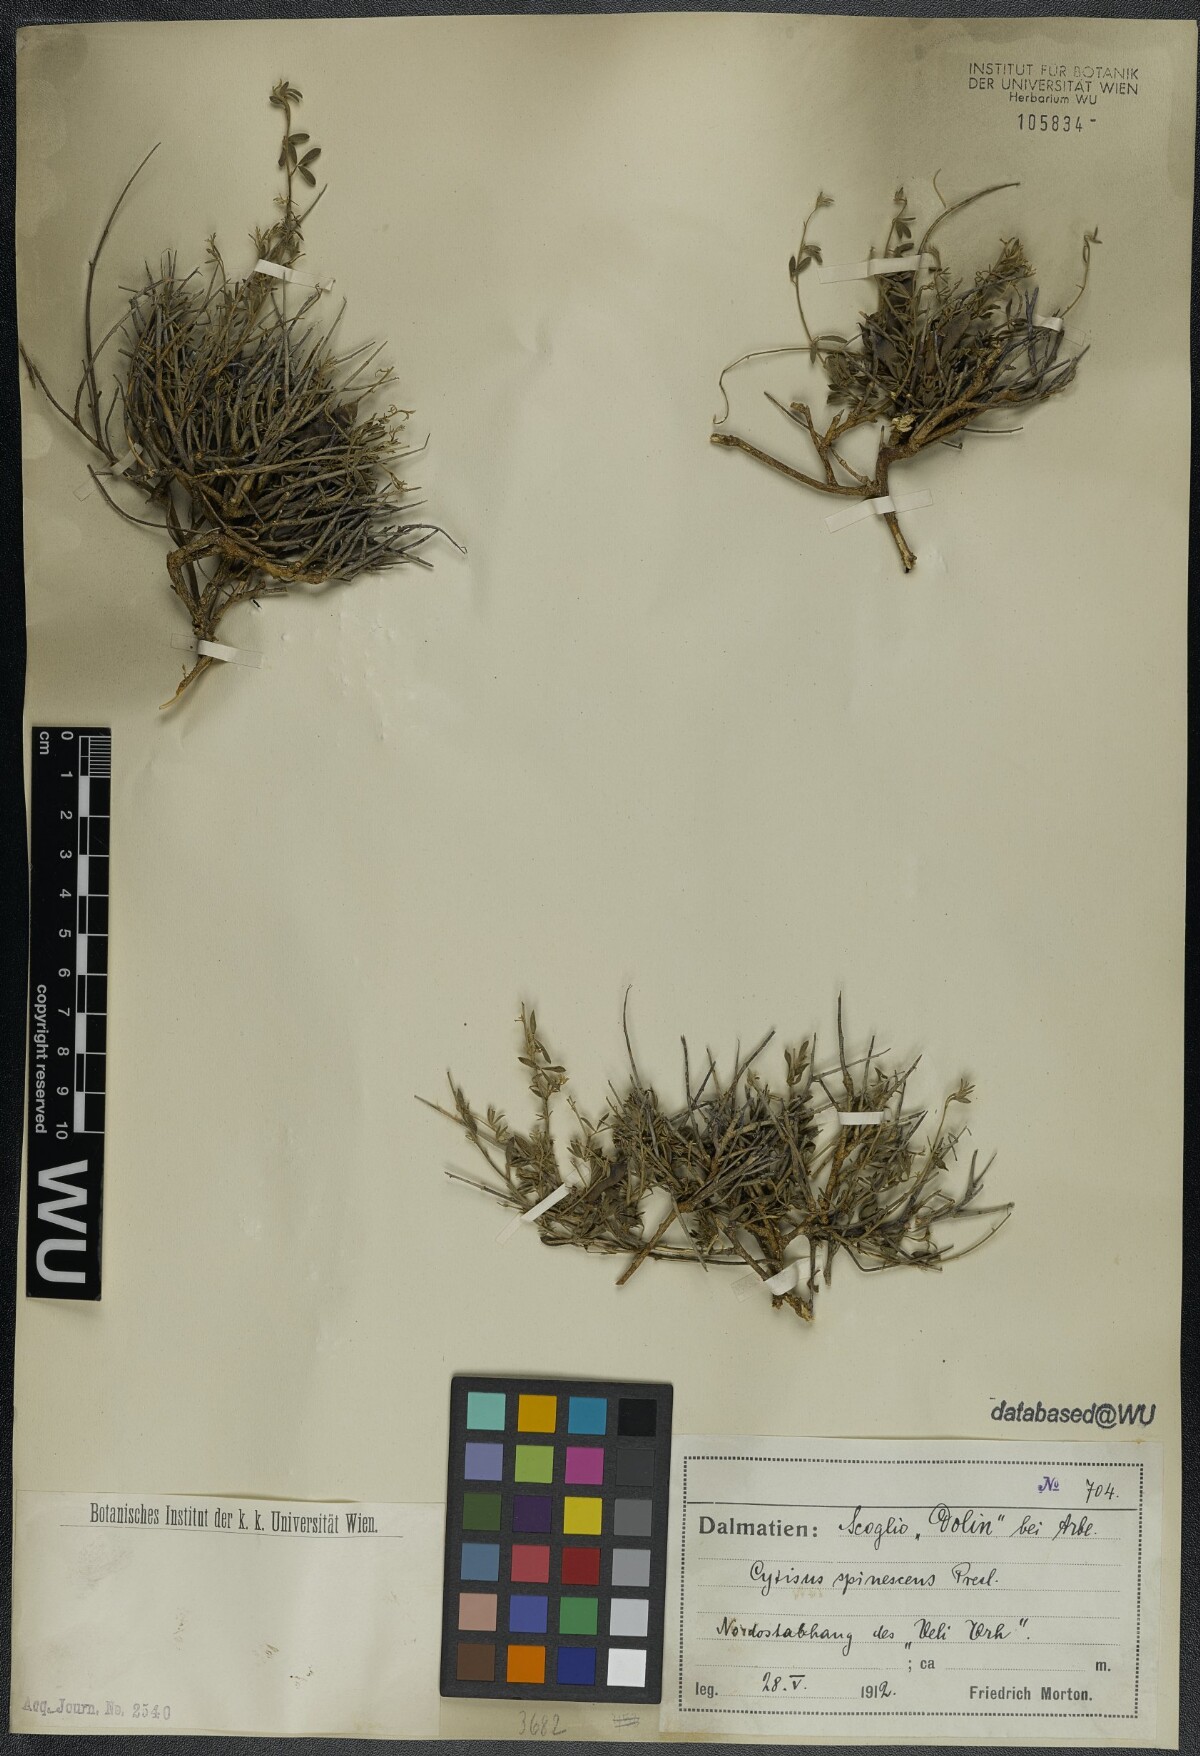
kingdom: Plantae
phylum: Tracheophyta
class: Magnoliopsida
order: Fabales
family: Fabaceae
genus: Chamaecytisus
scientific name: Chamaecytisus spinescens
